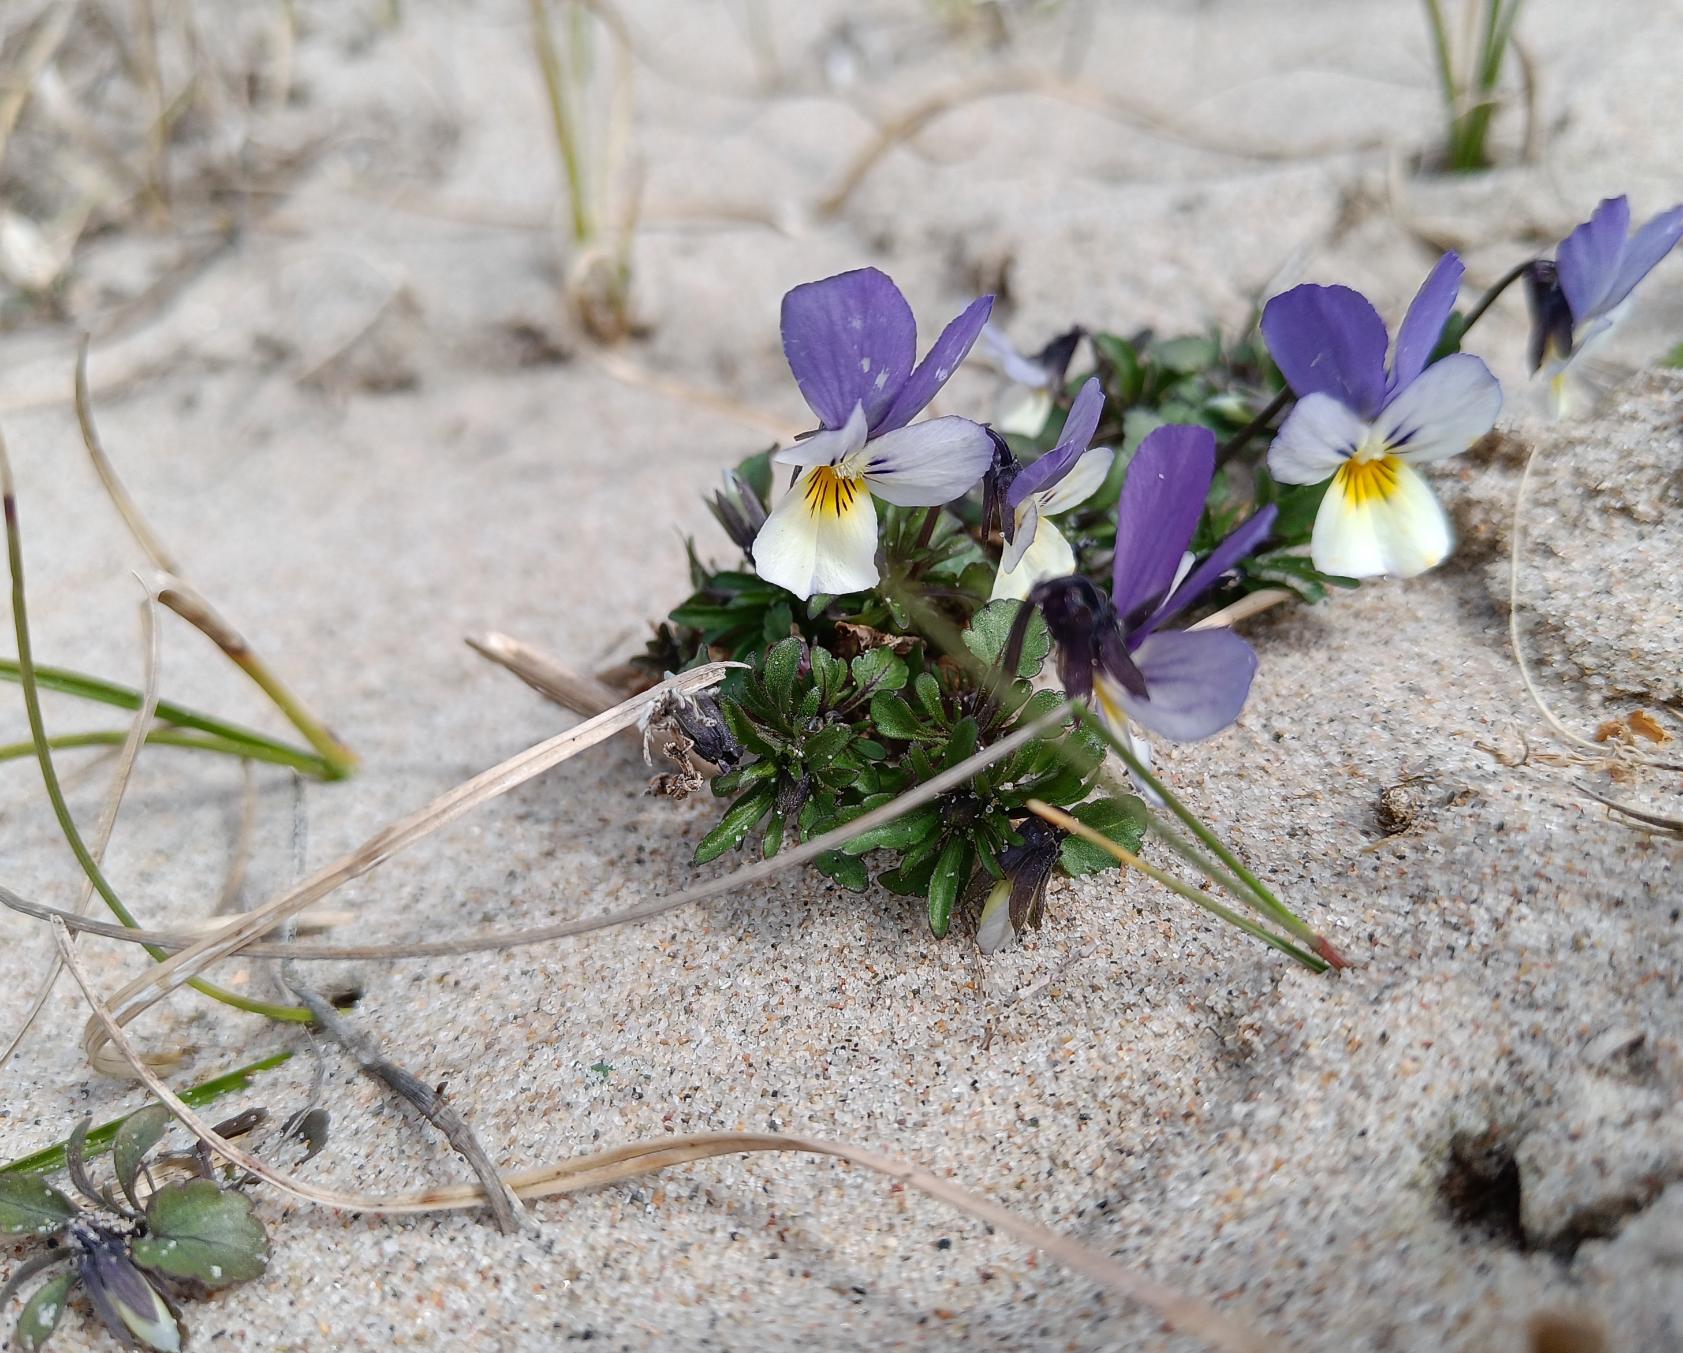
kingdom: Plantae
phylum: Tracheophyta
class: Magnoliopsida
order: Malpighiales
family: Violaceae
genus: Viola
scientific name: Viola tricolor
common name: Stedmoderblomst
